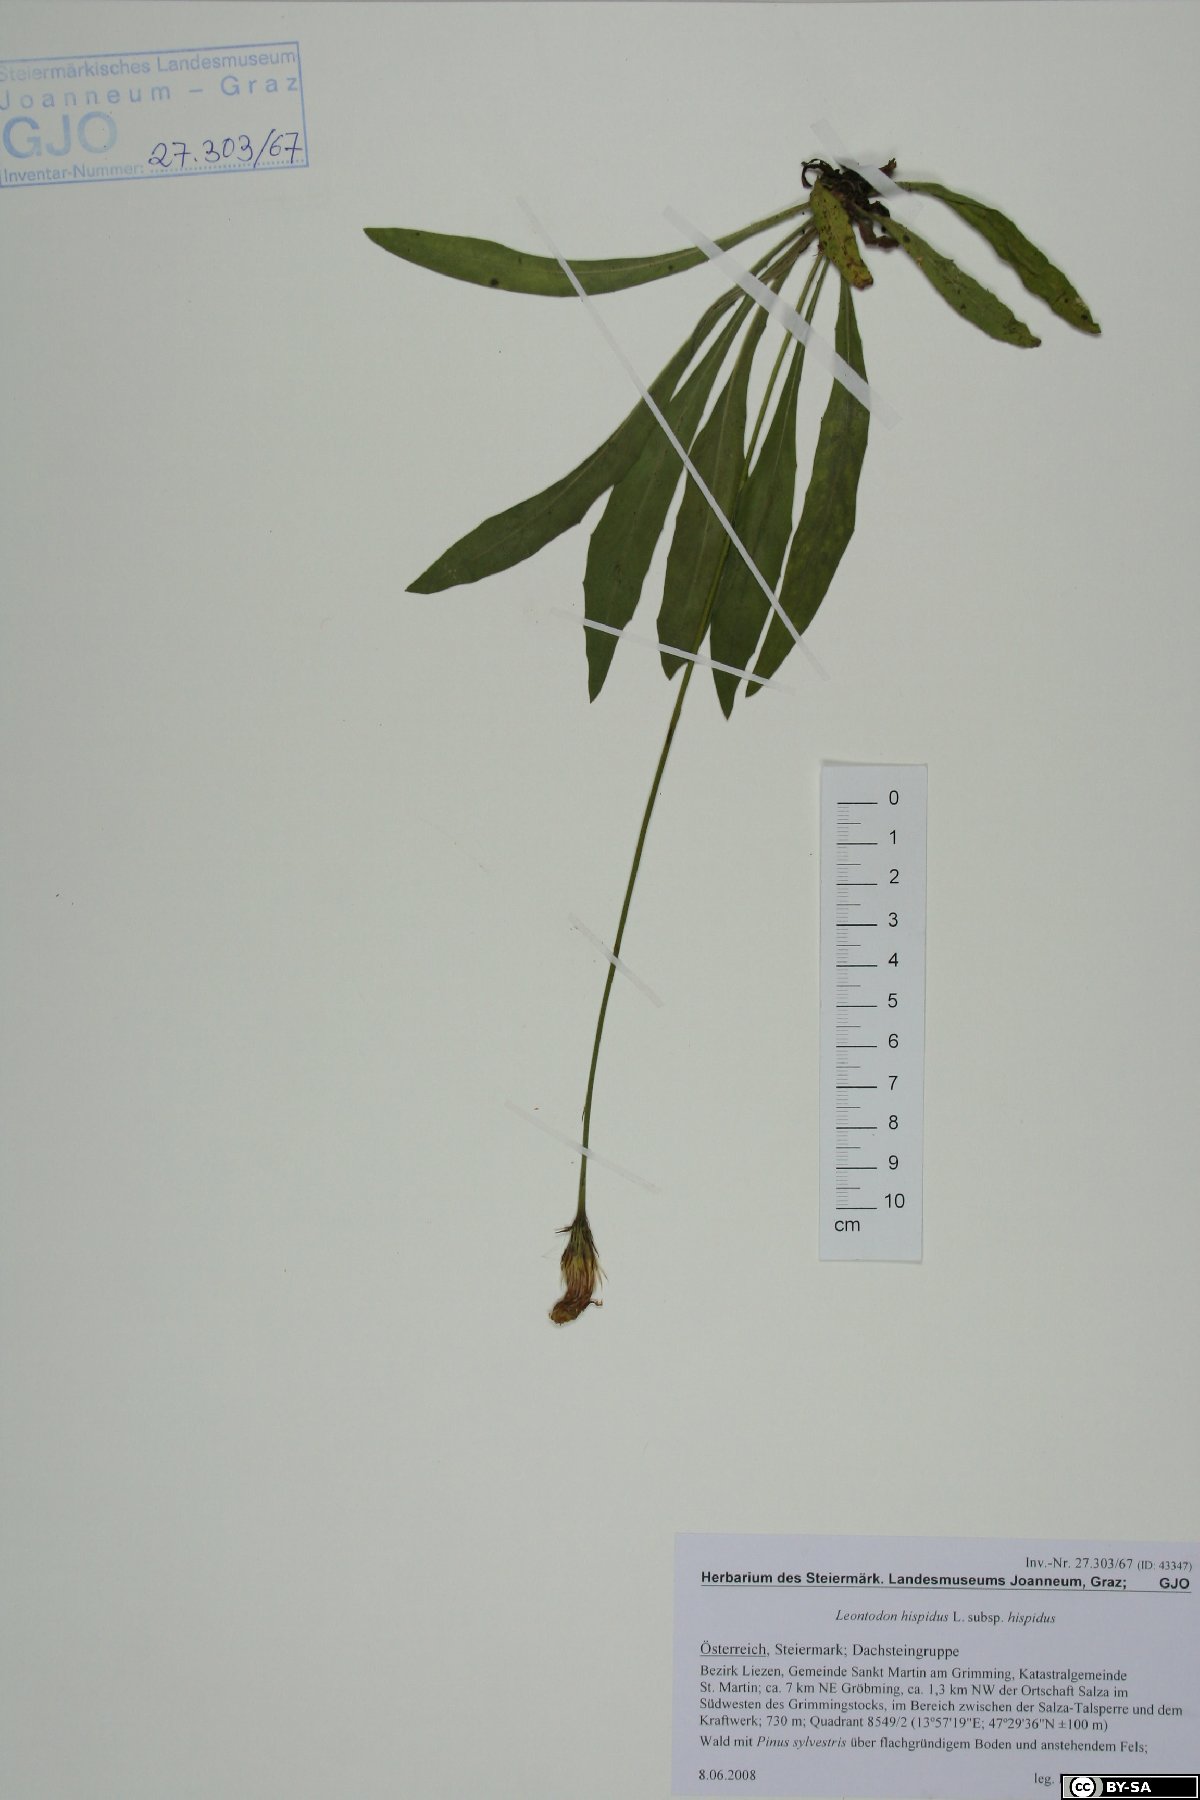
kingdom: Plantae
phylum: Tracheophyta
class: Magnoliopsida
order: Asterales
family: Asteraceae
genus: Leontodon
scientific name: Leontodon hispidus
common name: Rough hawkbit
